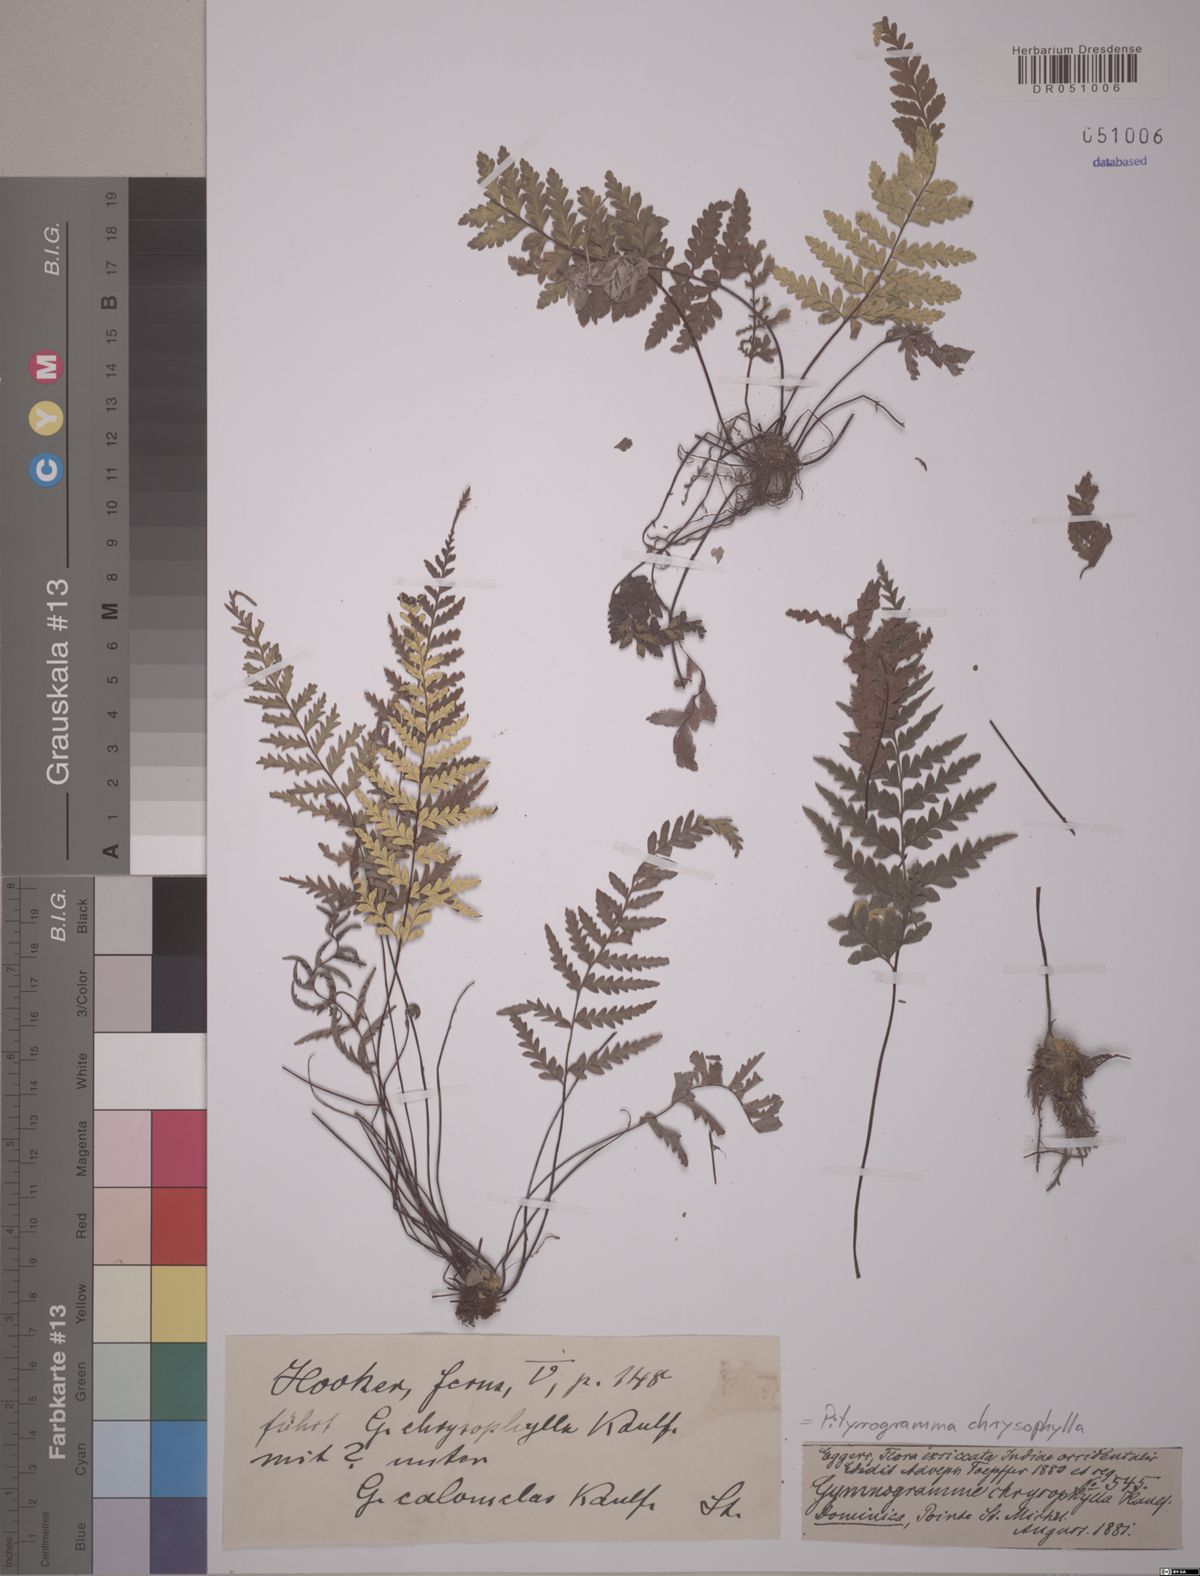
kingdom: Plantae
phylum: Tracheophyta
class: Polypodiopsida
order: Polypodiales
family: Pteridaceae
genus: Pityrogramma
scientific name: Pityrogramma chrysophylla
